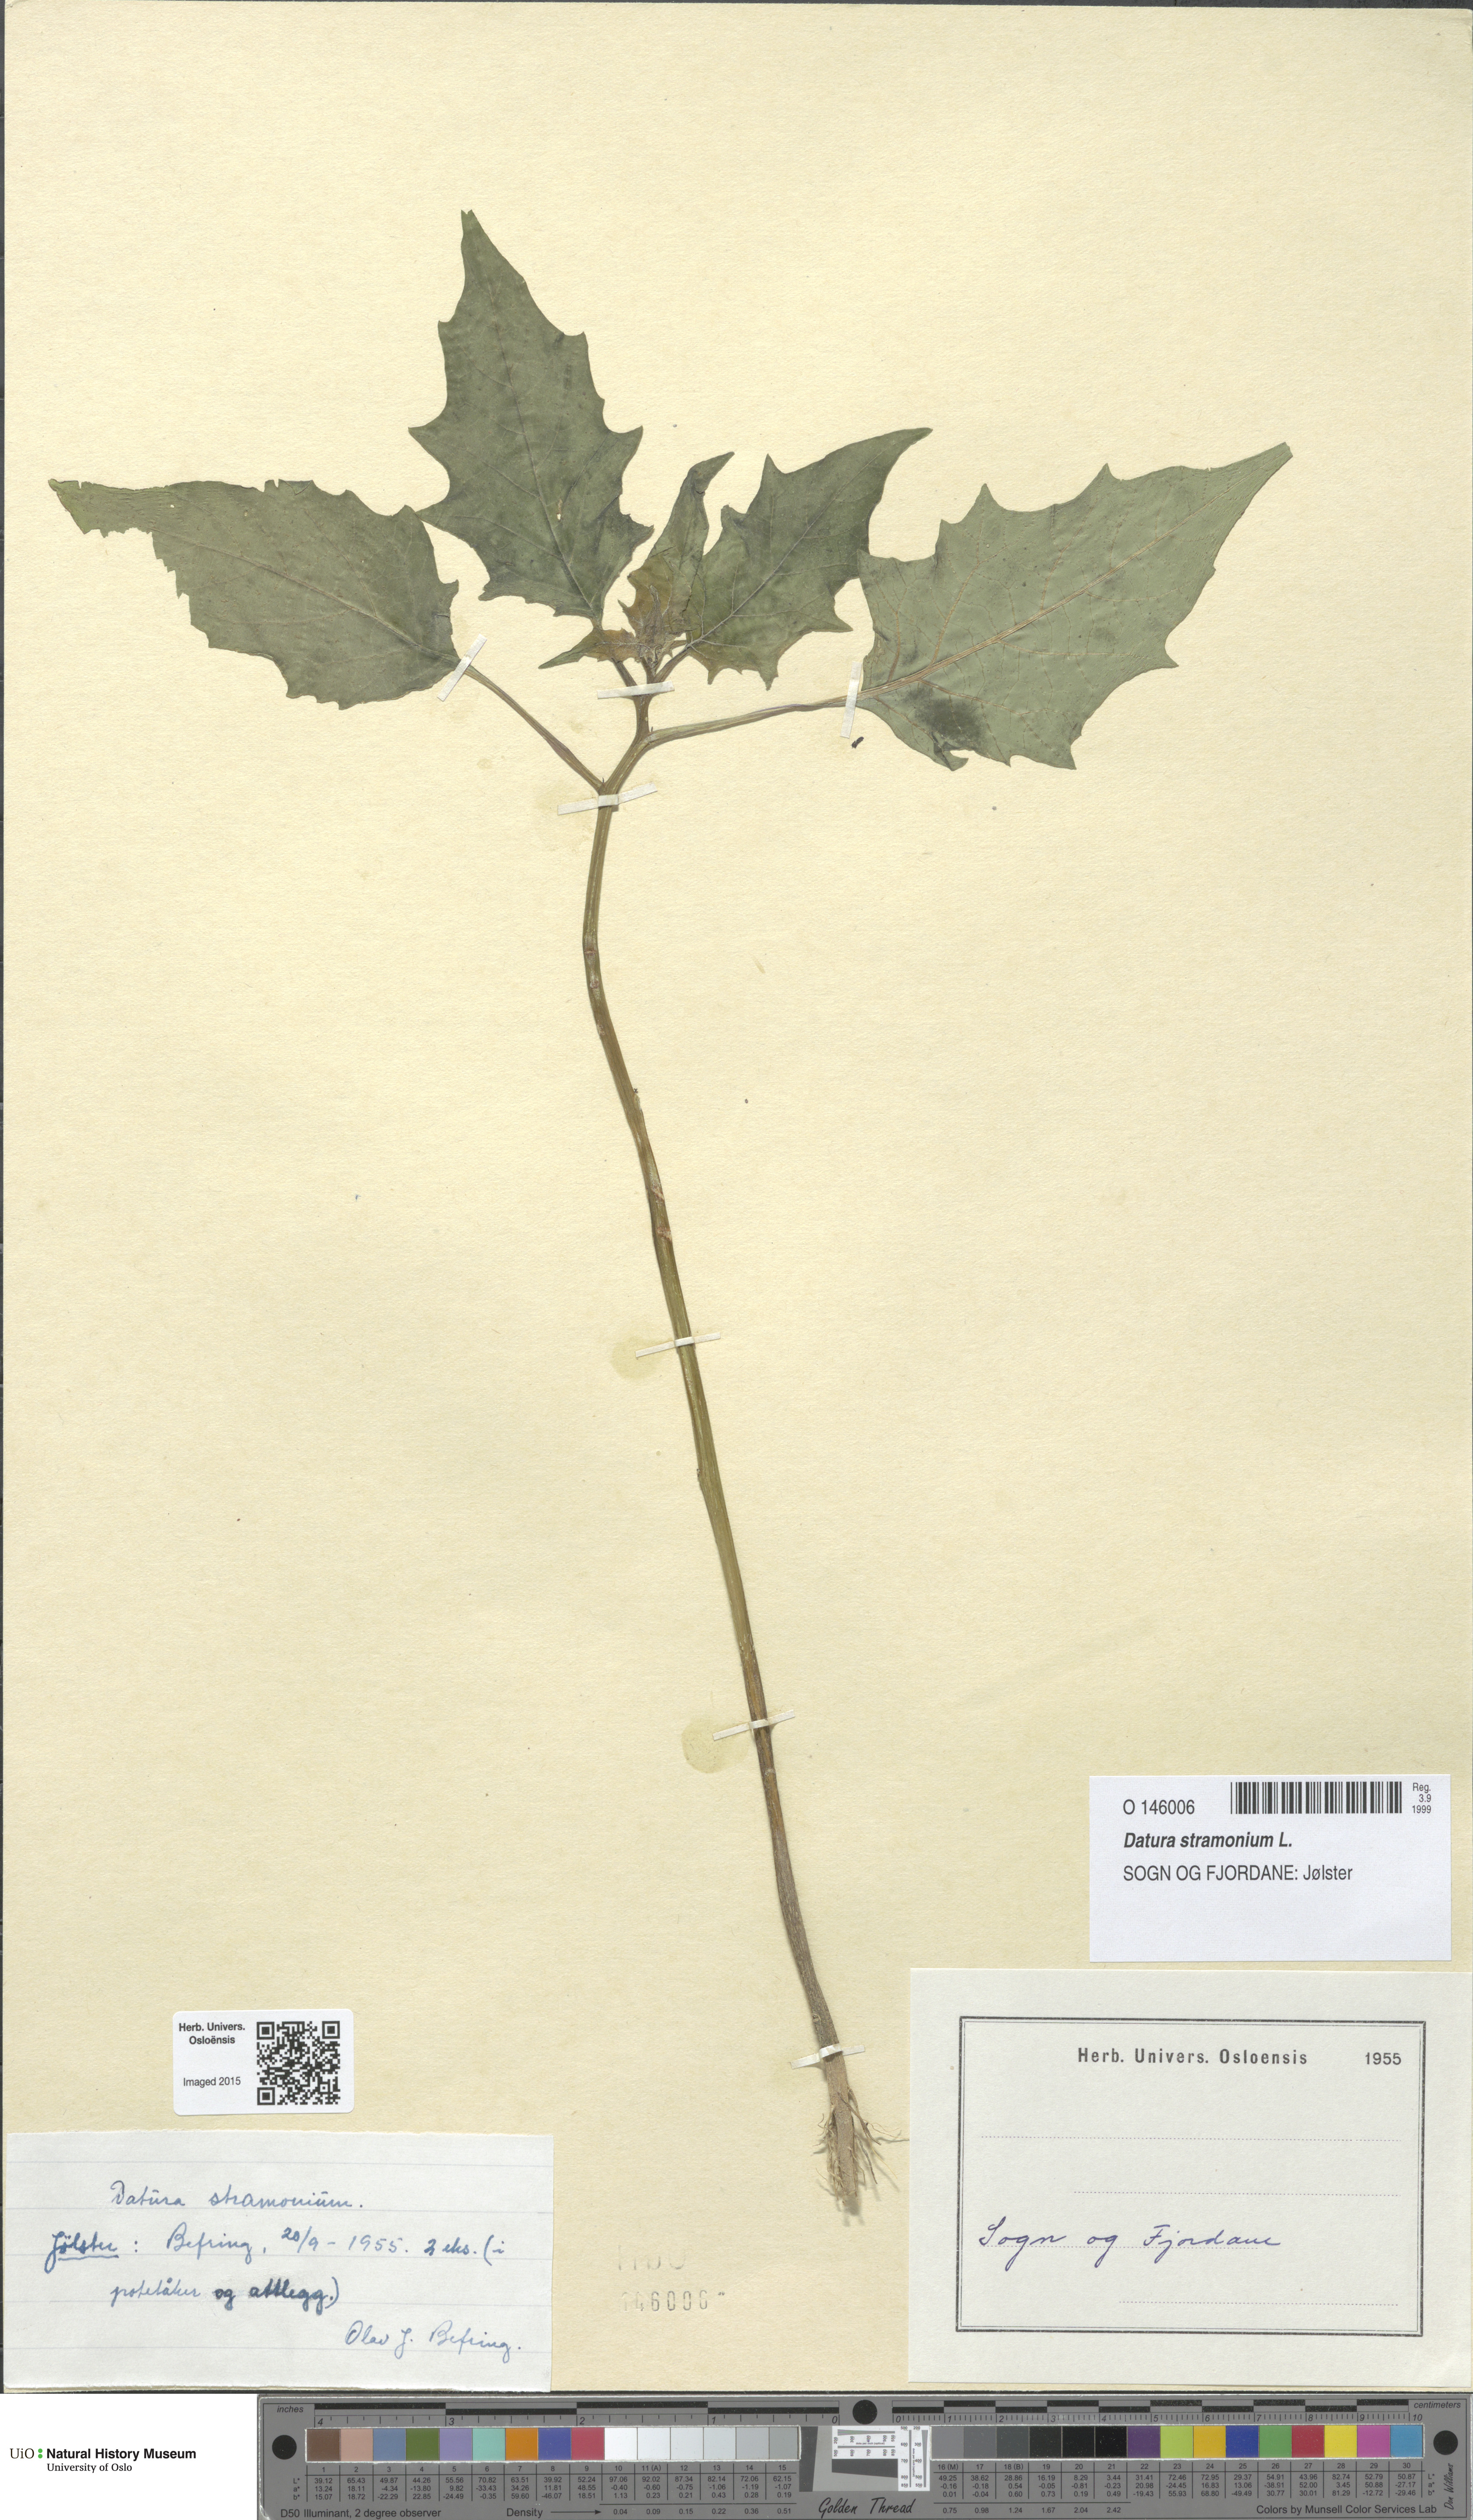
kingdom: Plantae
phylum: Tracheophyta
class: Magnoliopsida
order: Solanales
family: Solanaceae
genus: Datura
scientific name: Datura stramonium
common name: Thorn-apple
